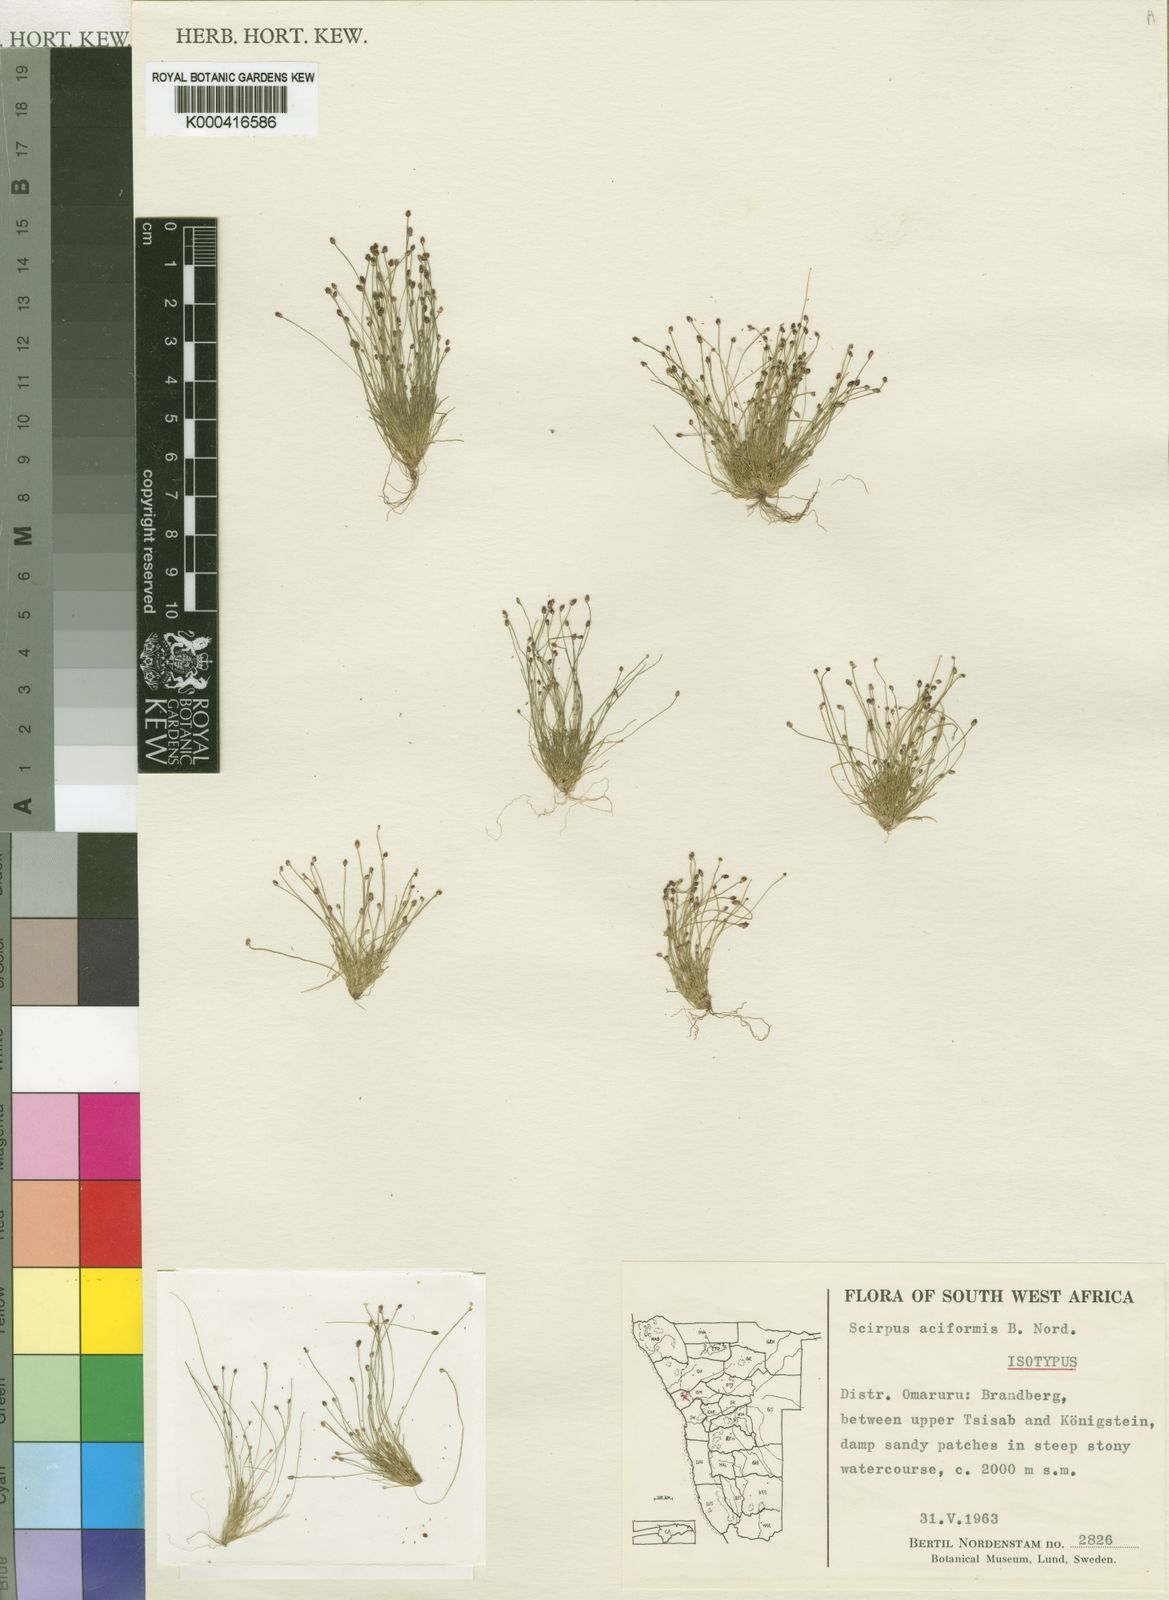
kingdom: Plantae
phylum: Tracheophyta
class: Liliopsida
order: Poales
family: Cyperaceae
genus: Ficinia
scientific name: Ficinia hemiuncialis
